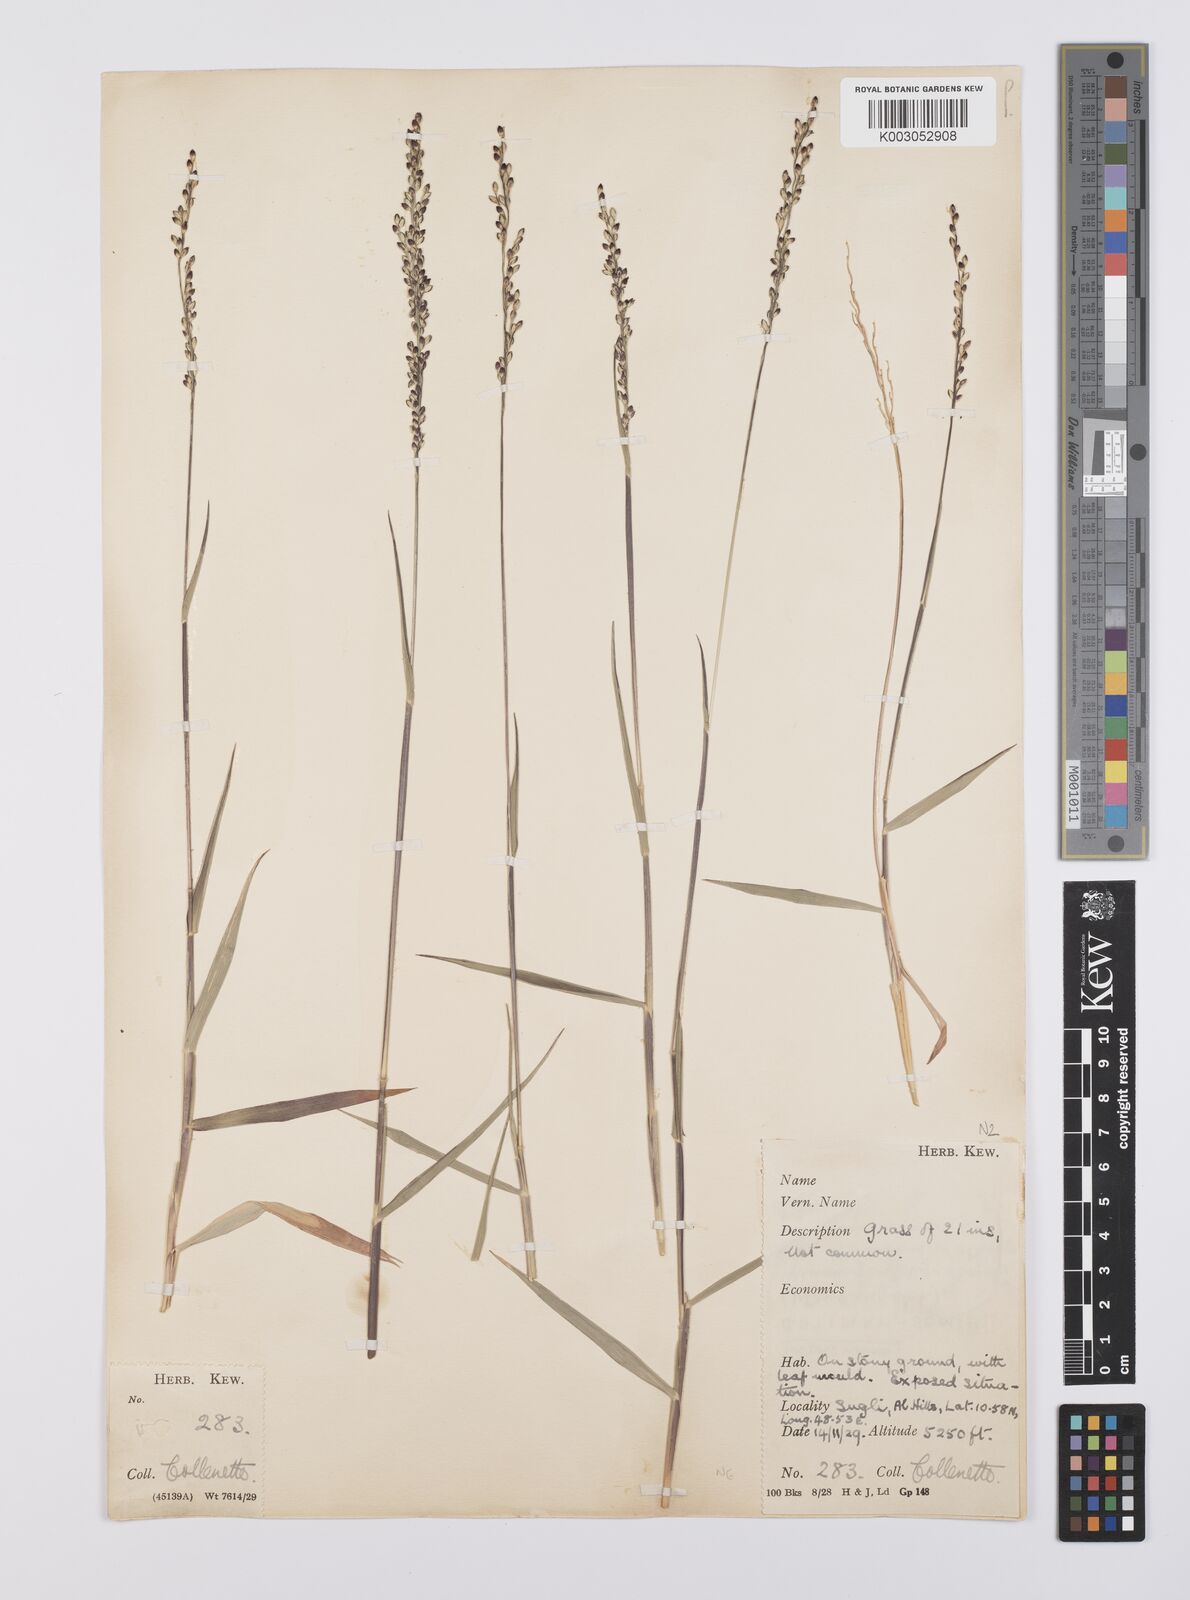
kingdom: Plantae
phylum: Tracheophyta
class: Liliopsida
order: Poales
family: Poaceae
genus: Urochloa
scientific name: Urochloa ovalis
